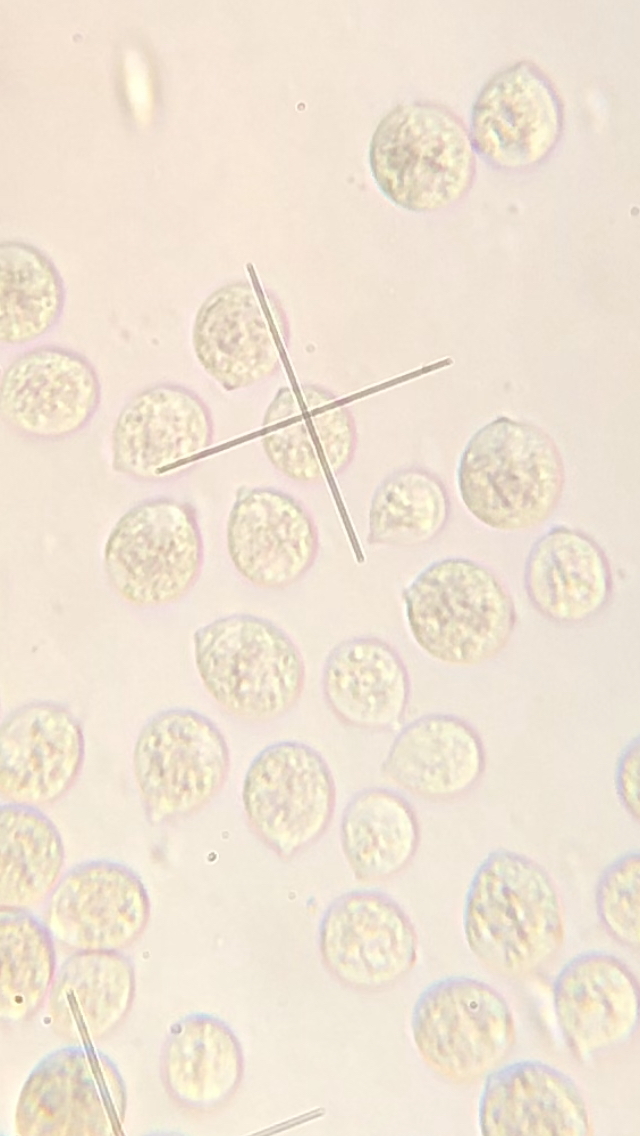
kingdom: Fungi
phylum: Basidiomycota
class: Agaricomycetes
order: Cantharellales
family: Tulasnellaceae
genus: Tulasnella
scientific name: Tulasnella violea
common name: violet ballonhinde
